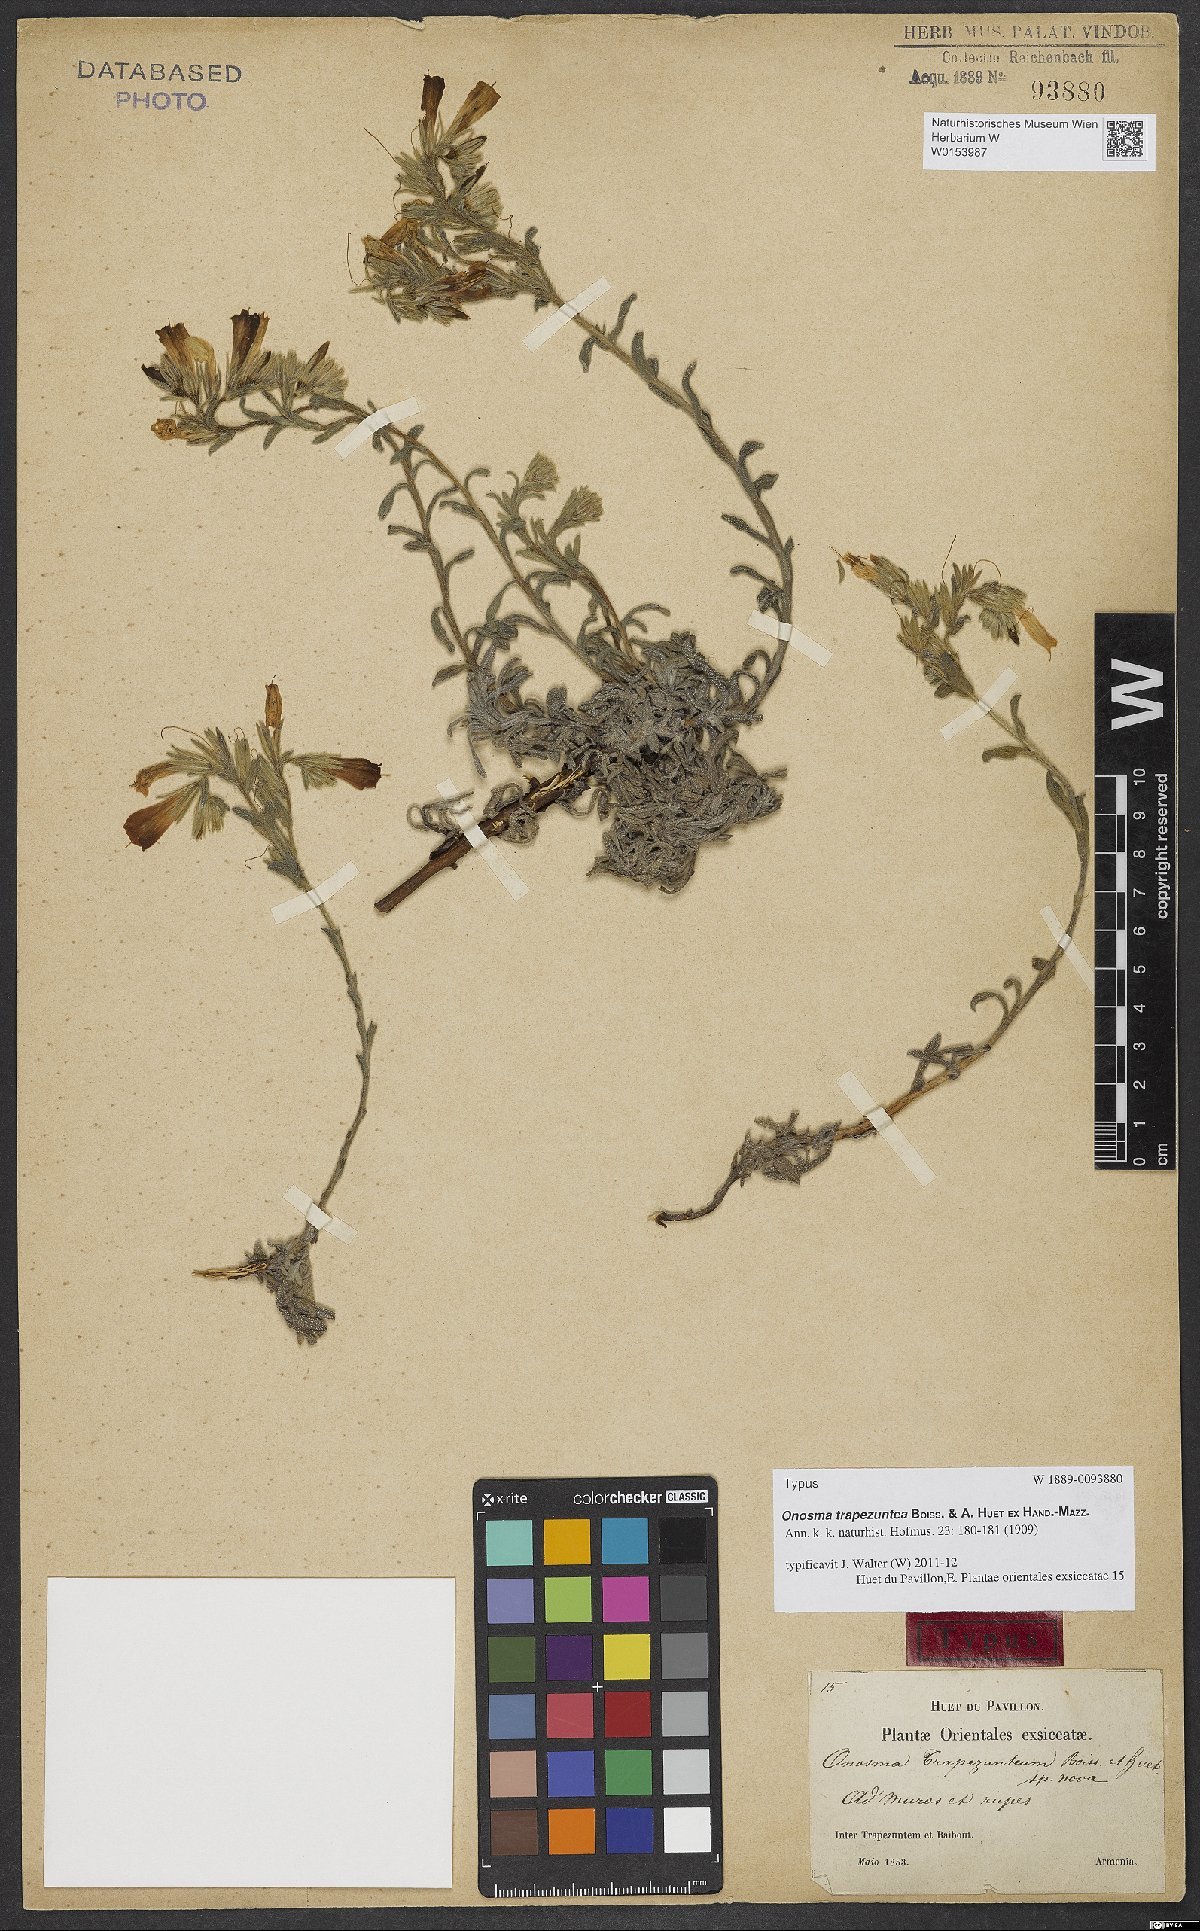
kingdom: Plantae
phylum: Tracheophyta
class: Magnoliopsida
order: Boraginales
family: Boraginaceae
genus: Onosma
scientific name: Onosma trapezuntea
